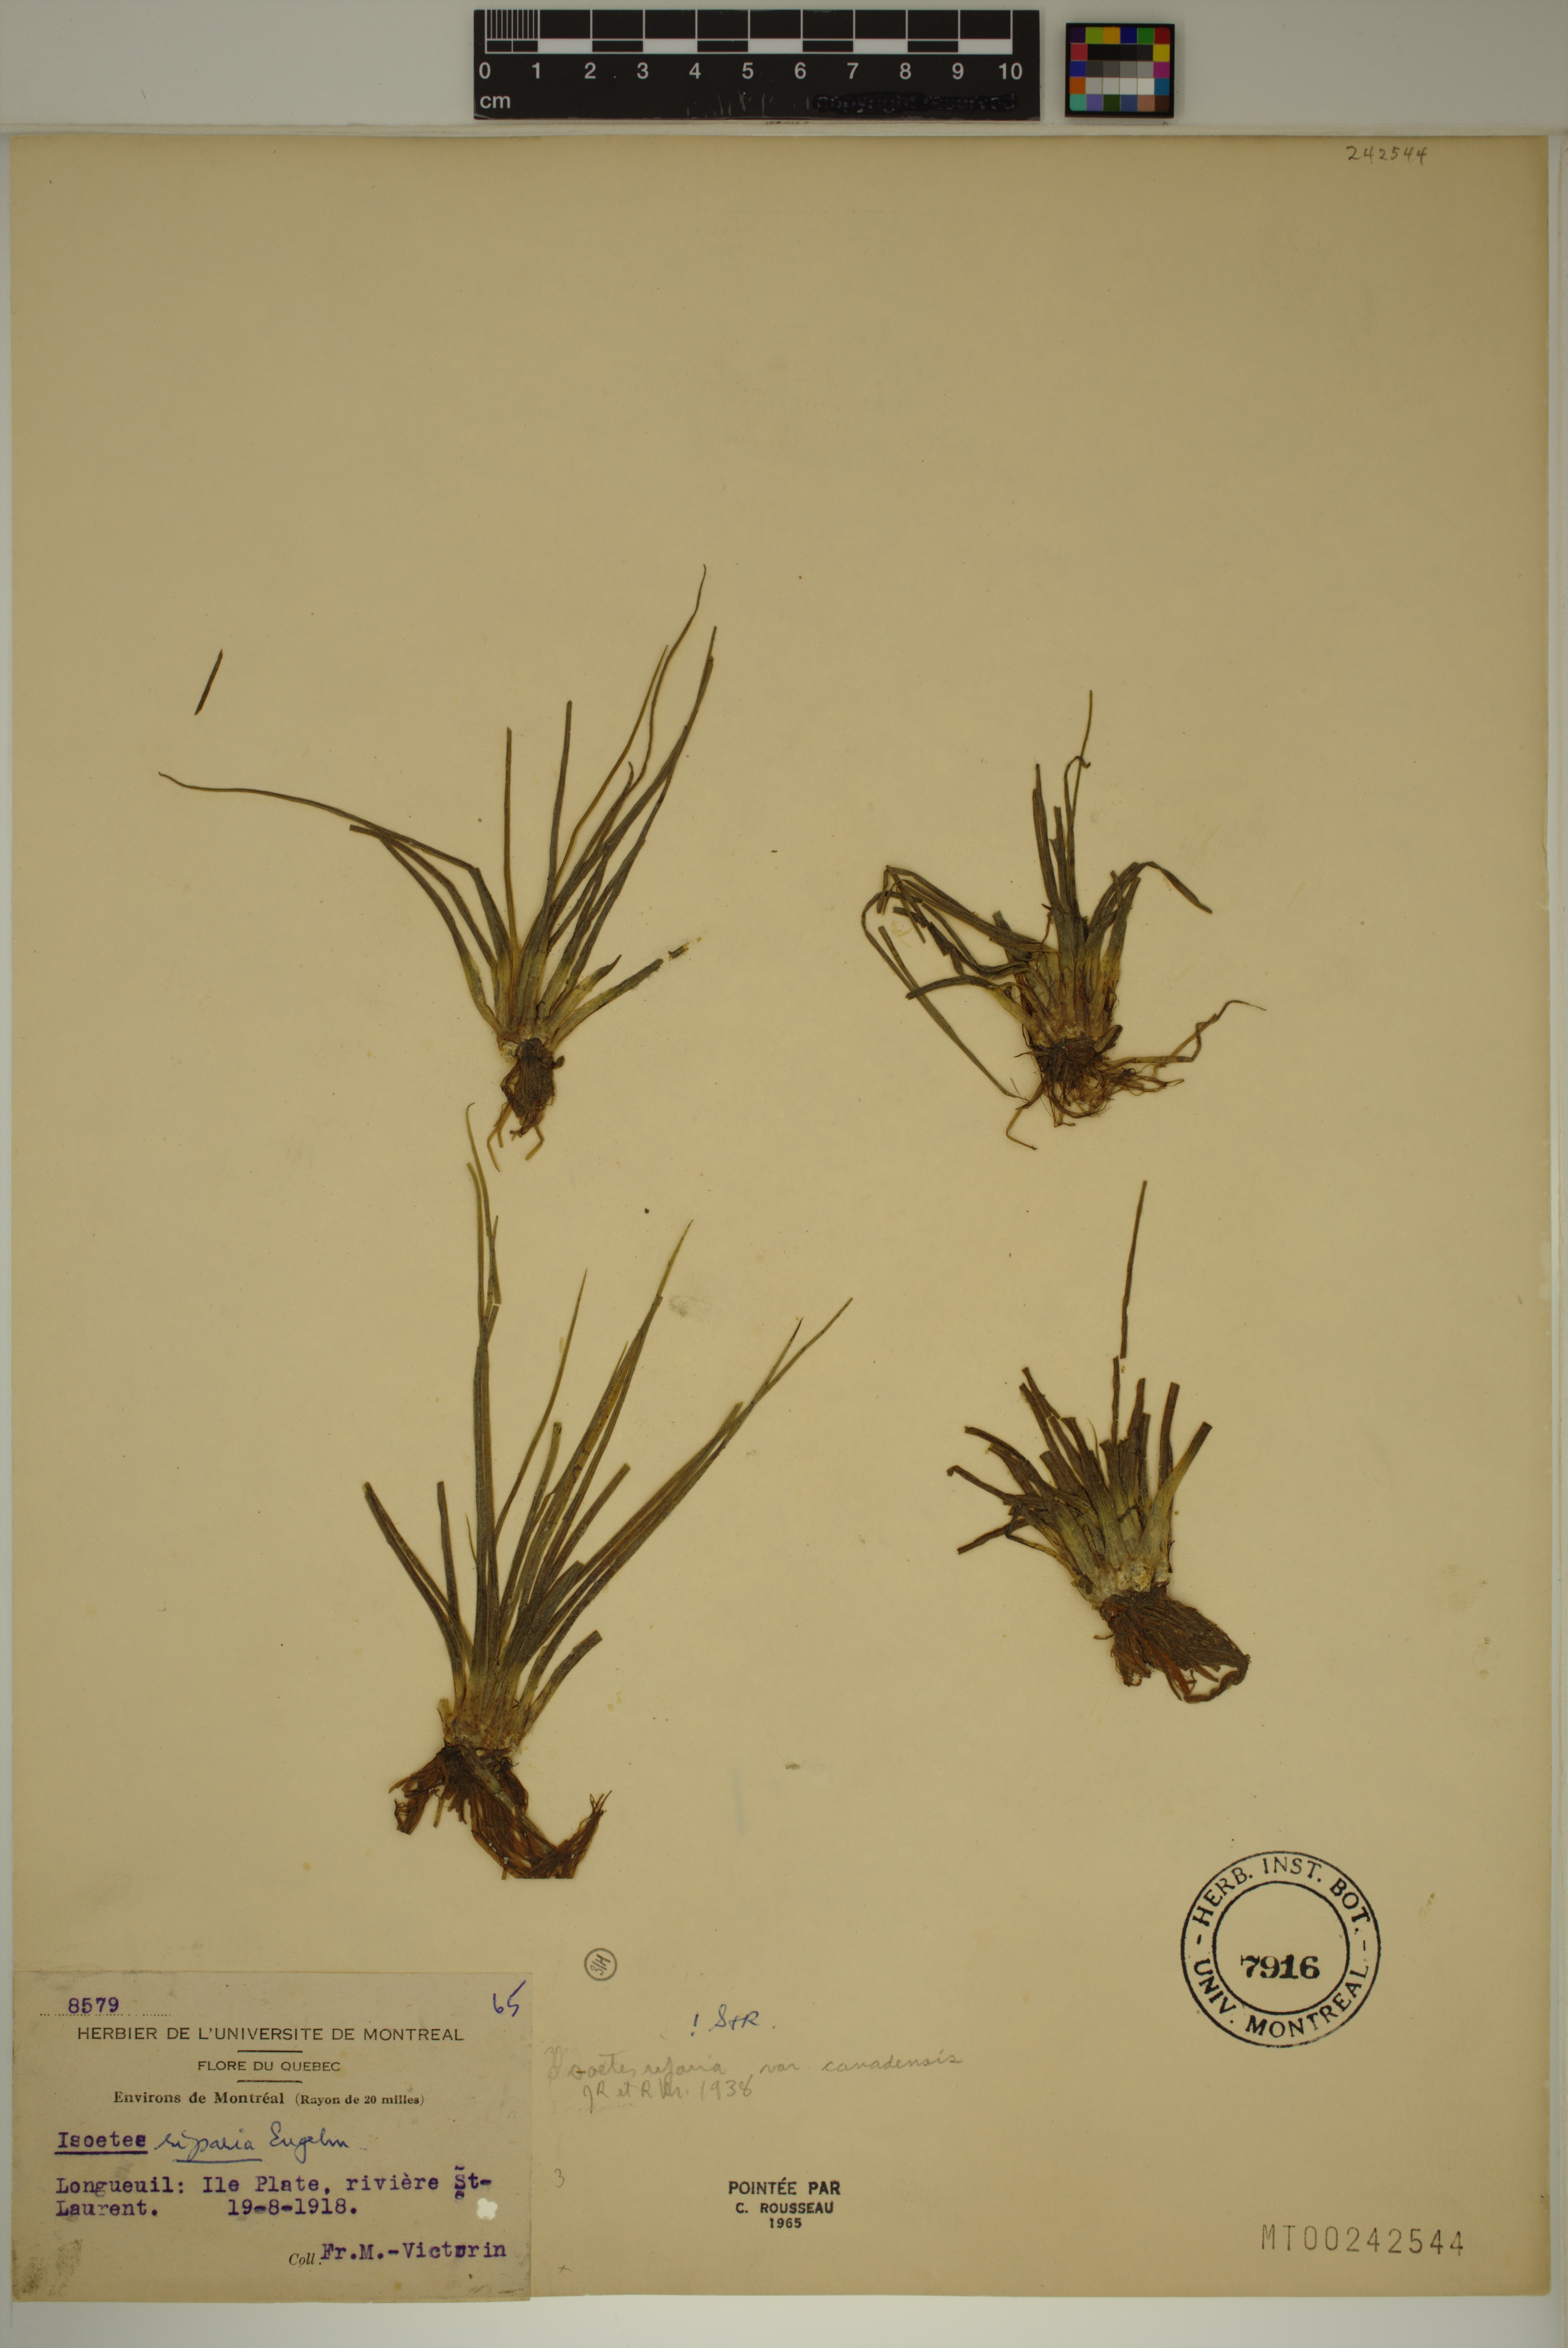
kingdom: Plantae
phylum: Tracheophyta
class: Lycopodiopsida
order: Isoetales
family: Isoetaceae
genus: Isoetes
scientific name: Isoetes septentrionalis
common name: Northern quillwort
